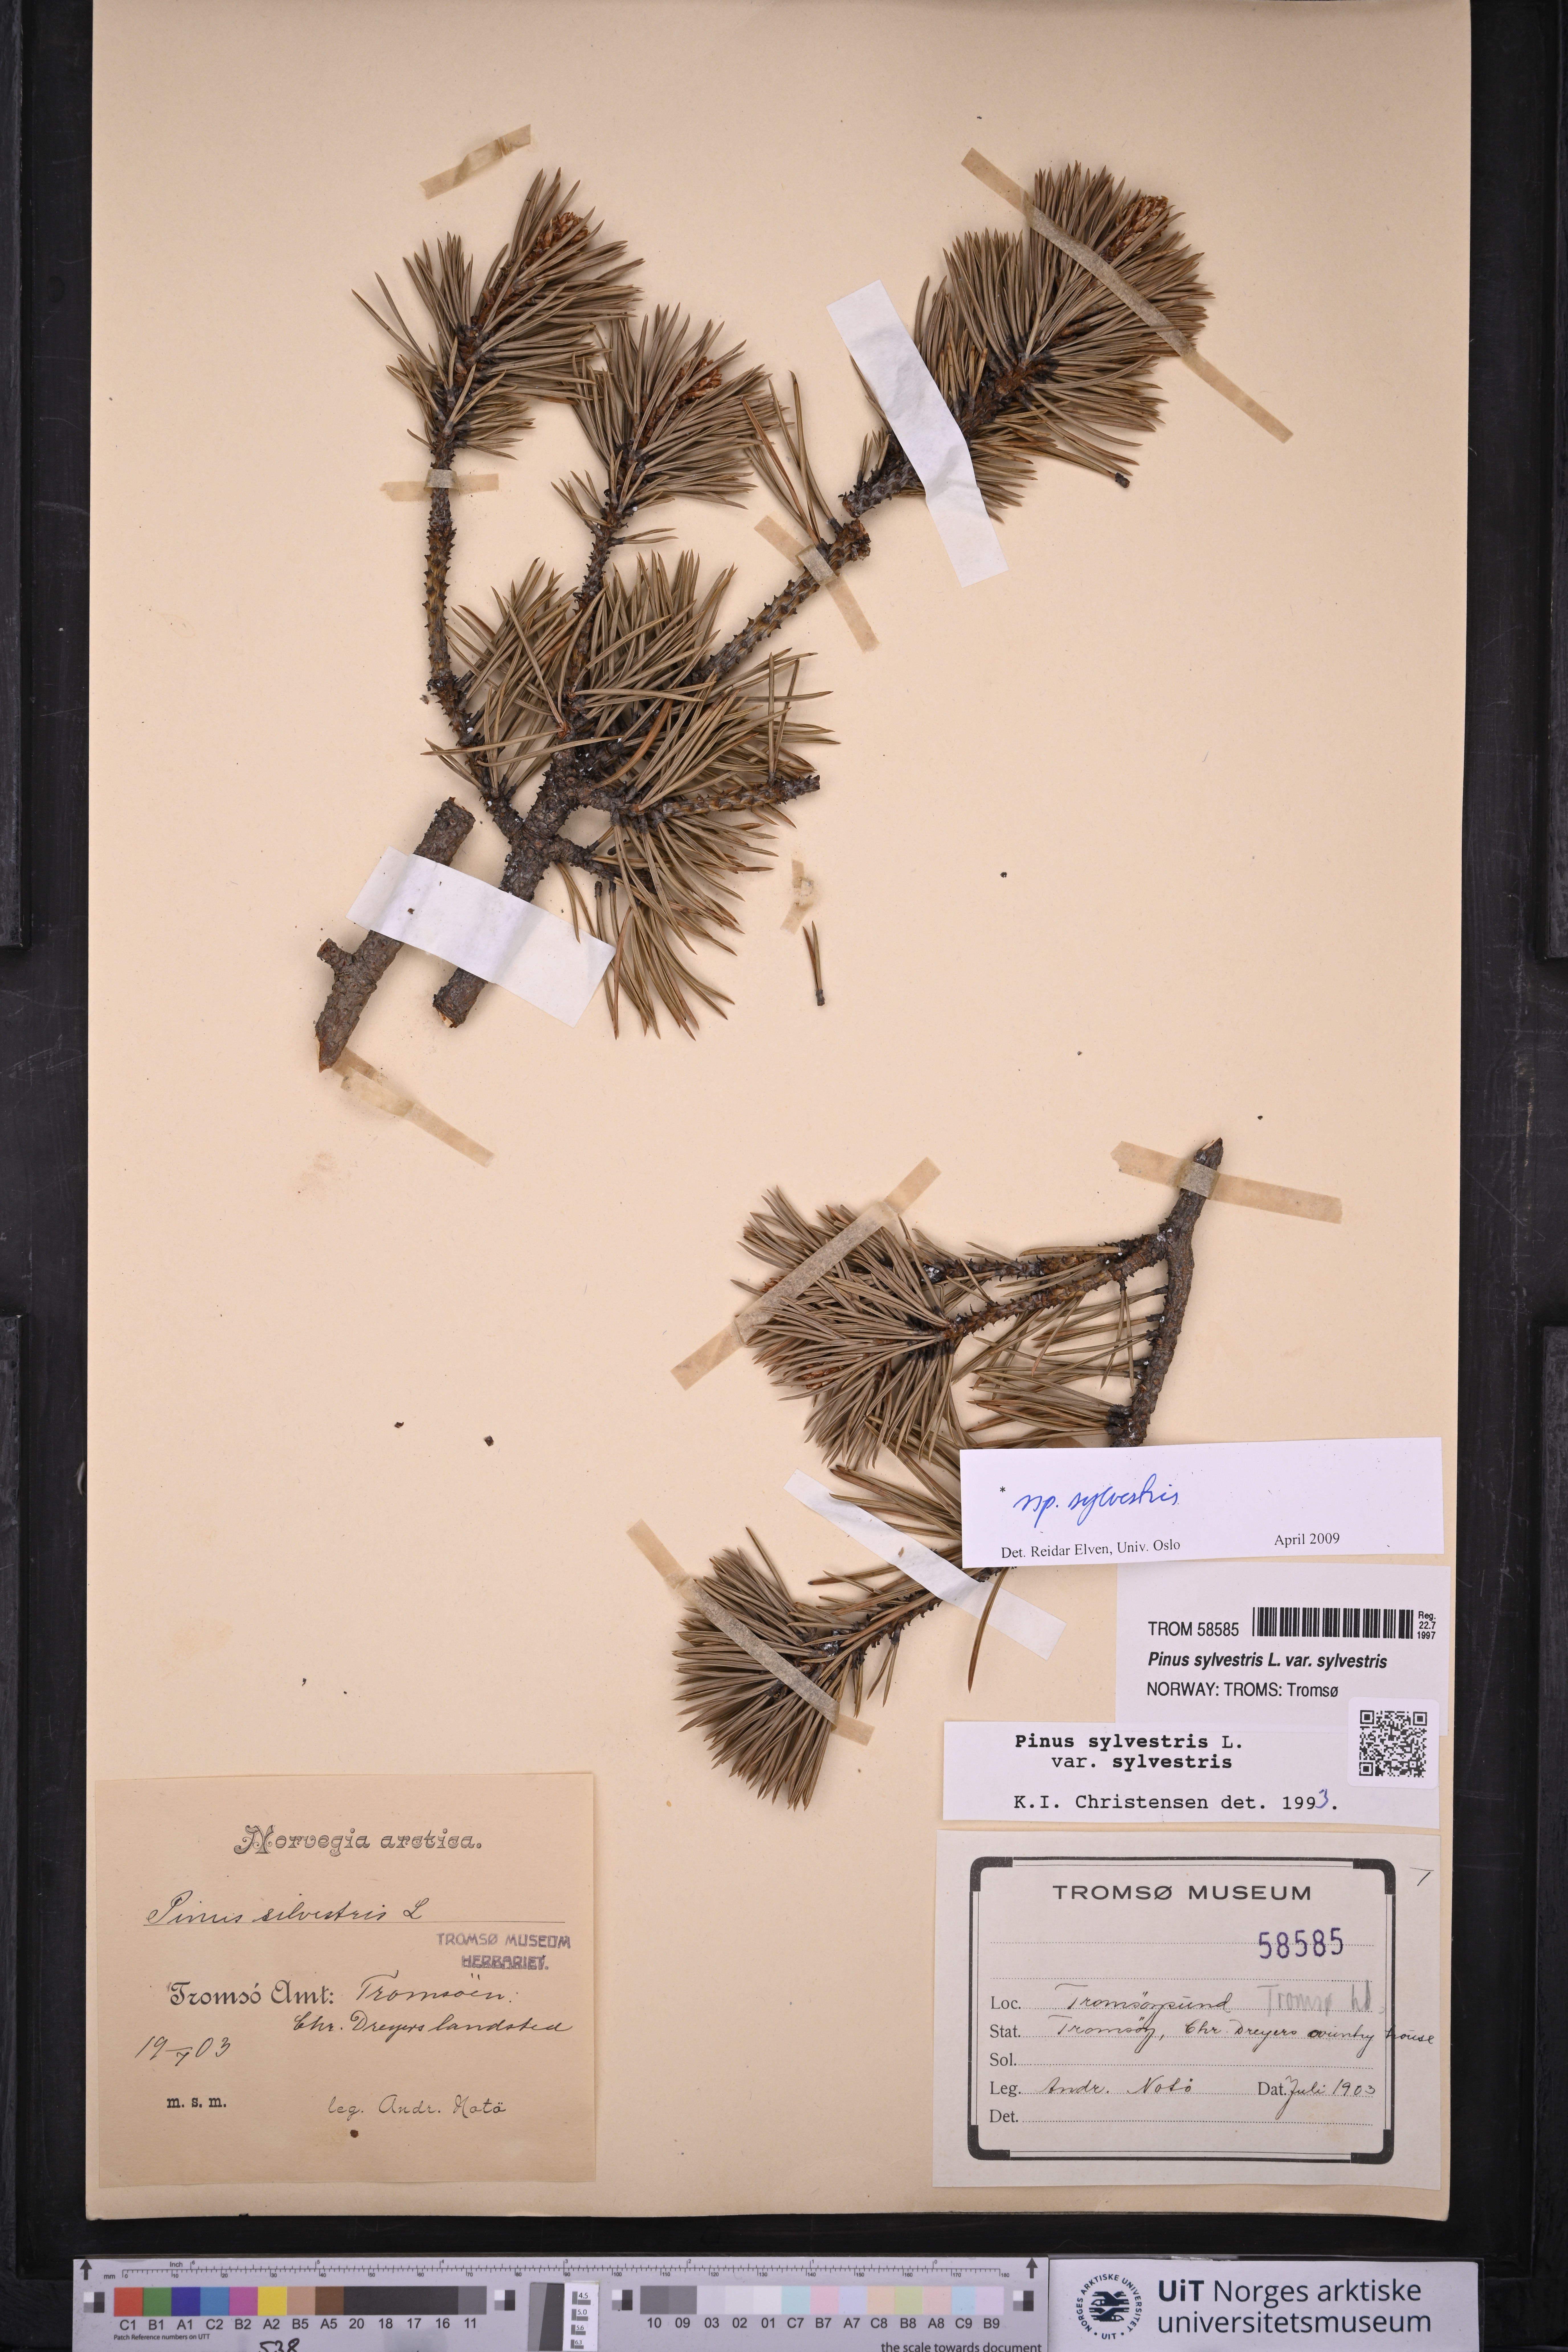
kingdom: Plantae
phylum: Tracheophyta
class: Pinopsida
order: Pinales
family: Pinaceae
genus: Pinus
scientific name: Pinus sylvestris
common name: Scots pine
